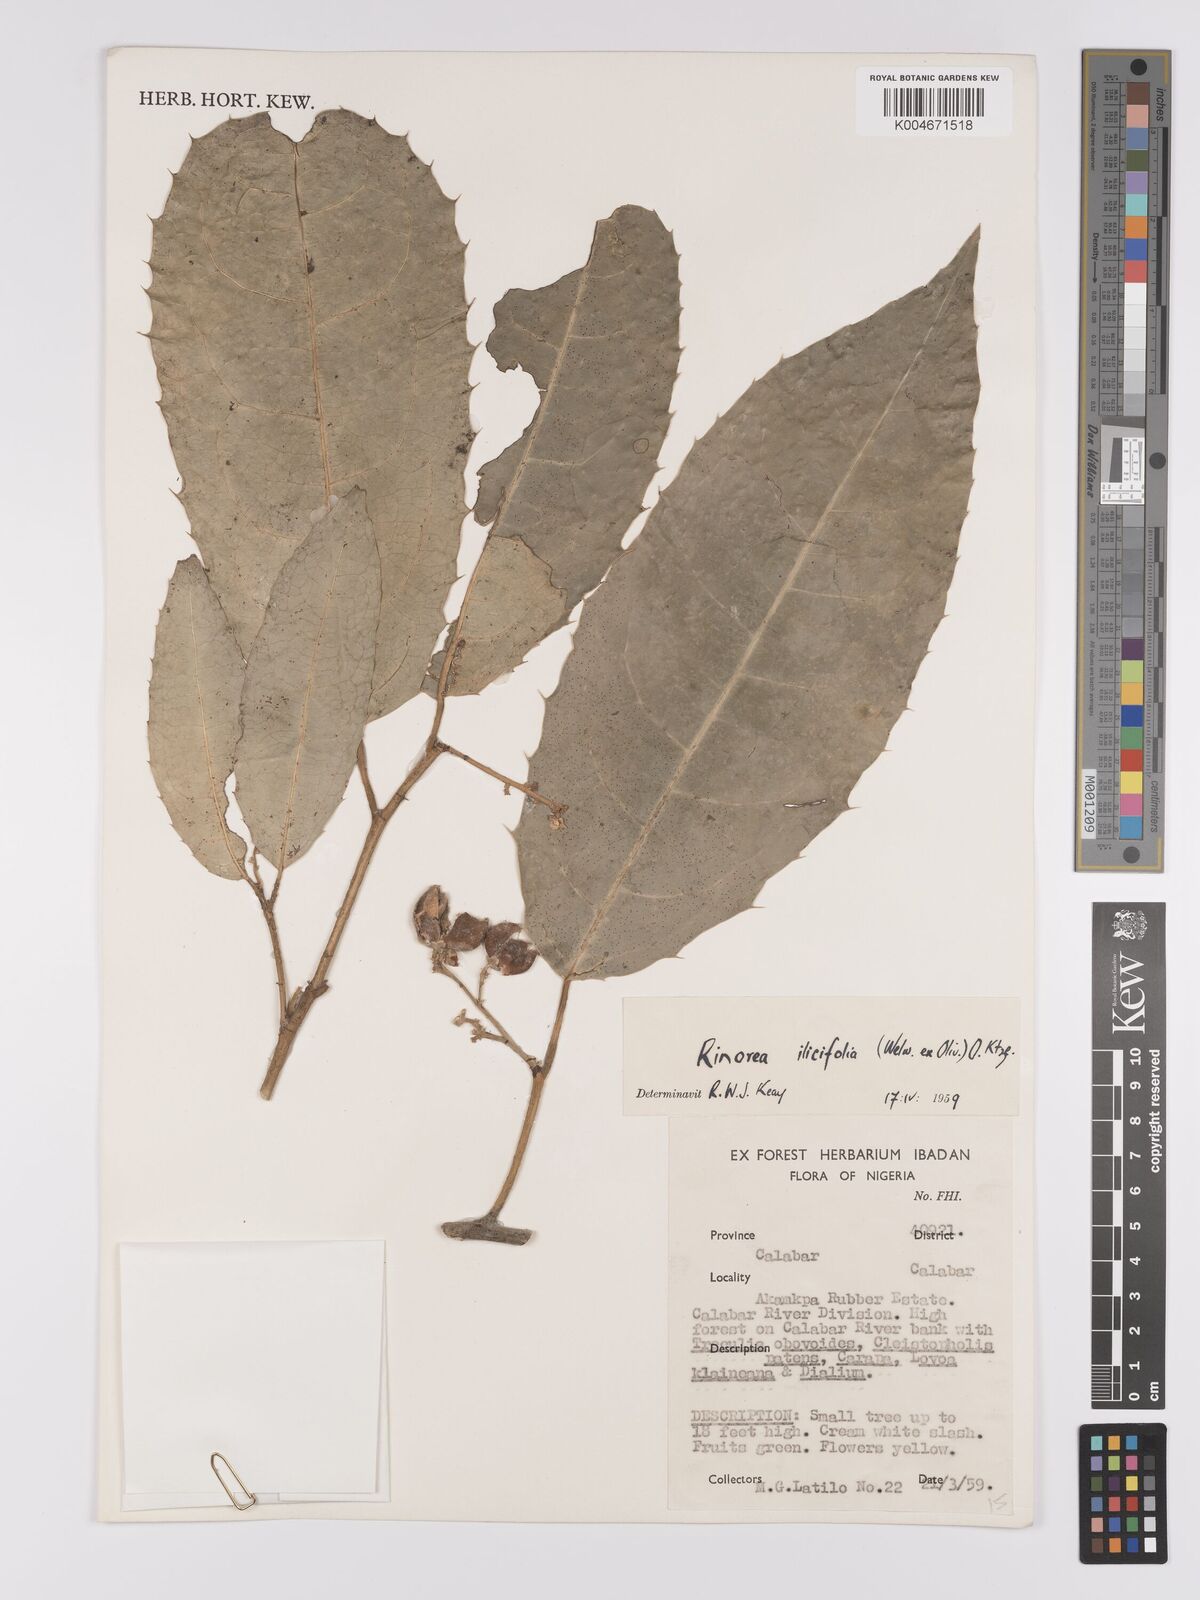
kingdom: Plantae
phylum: Tracheophyta
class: Magnoliopsida
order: Malpighiales
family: Violaceae
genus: Rinorea
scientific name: Rinorea ilicifolia
